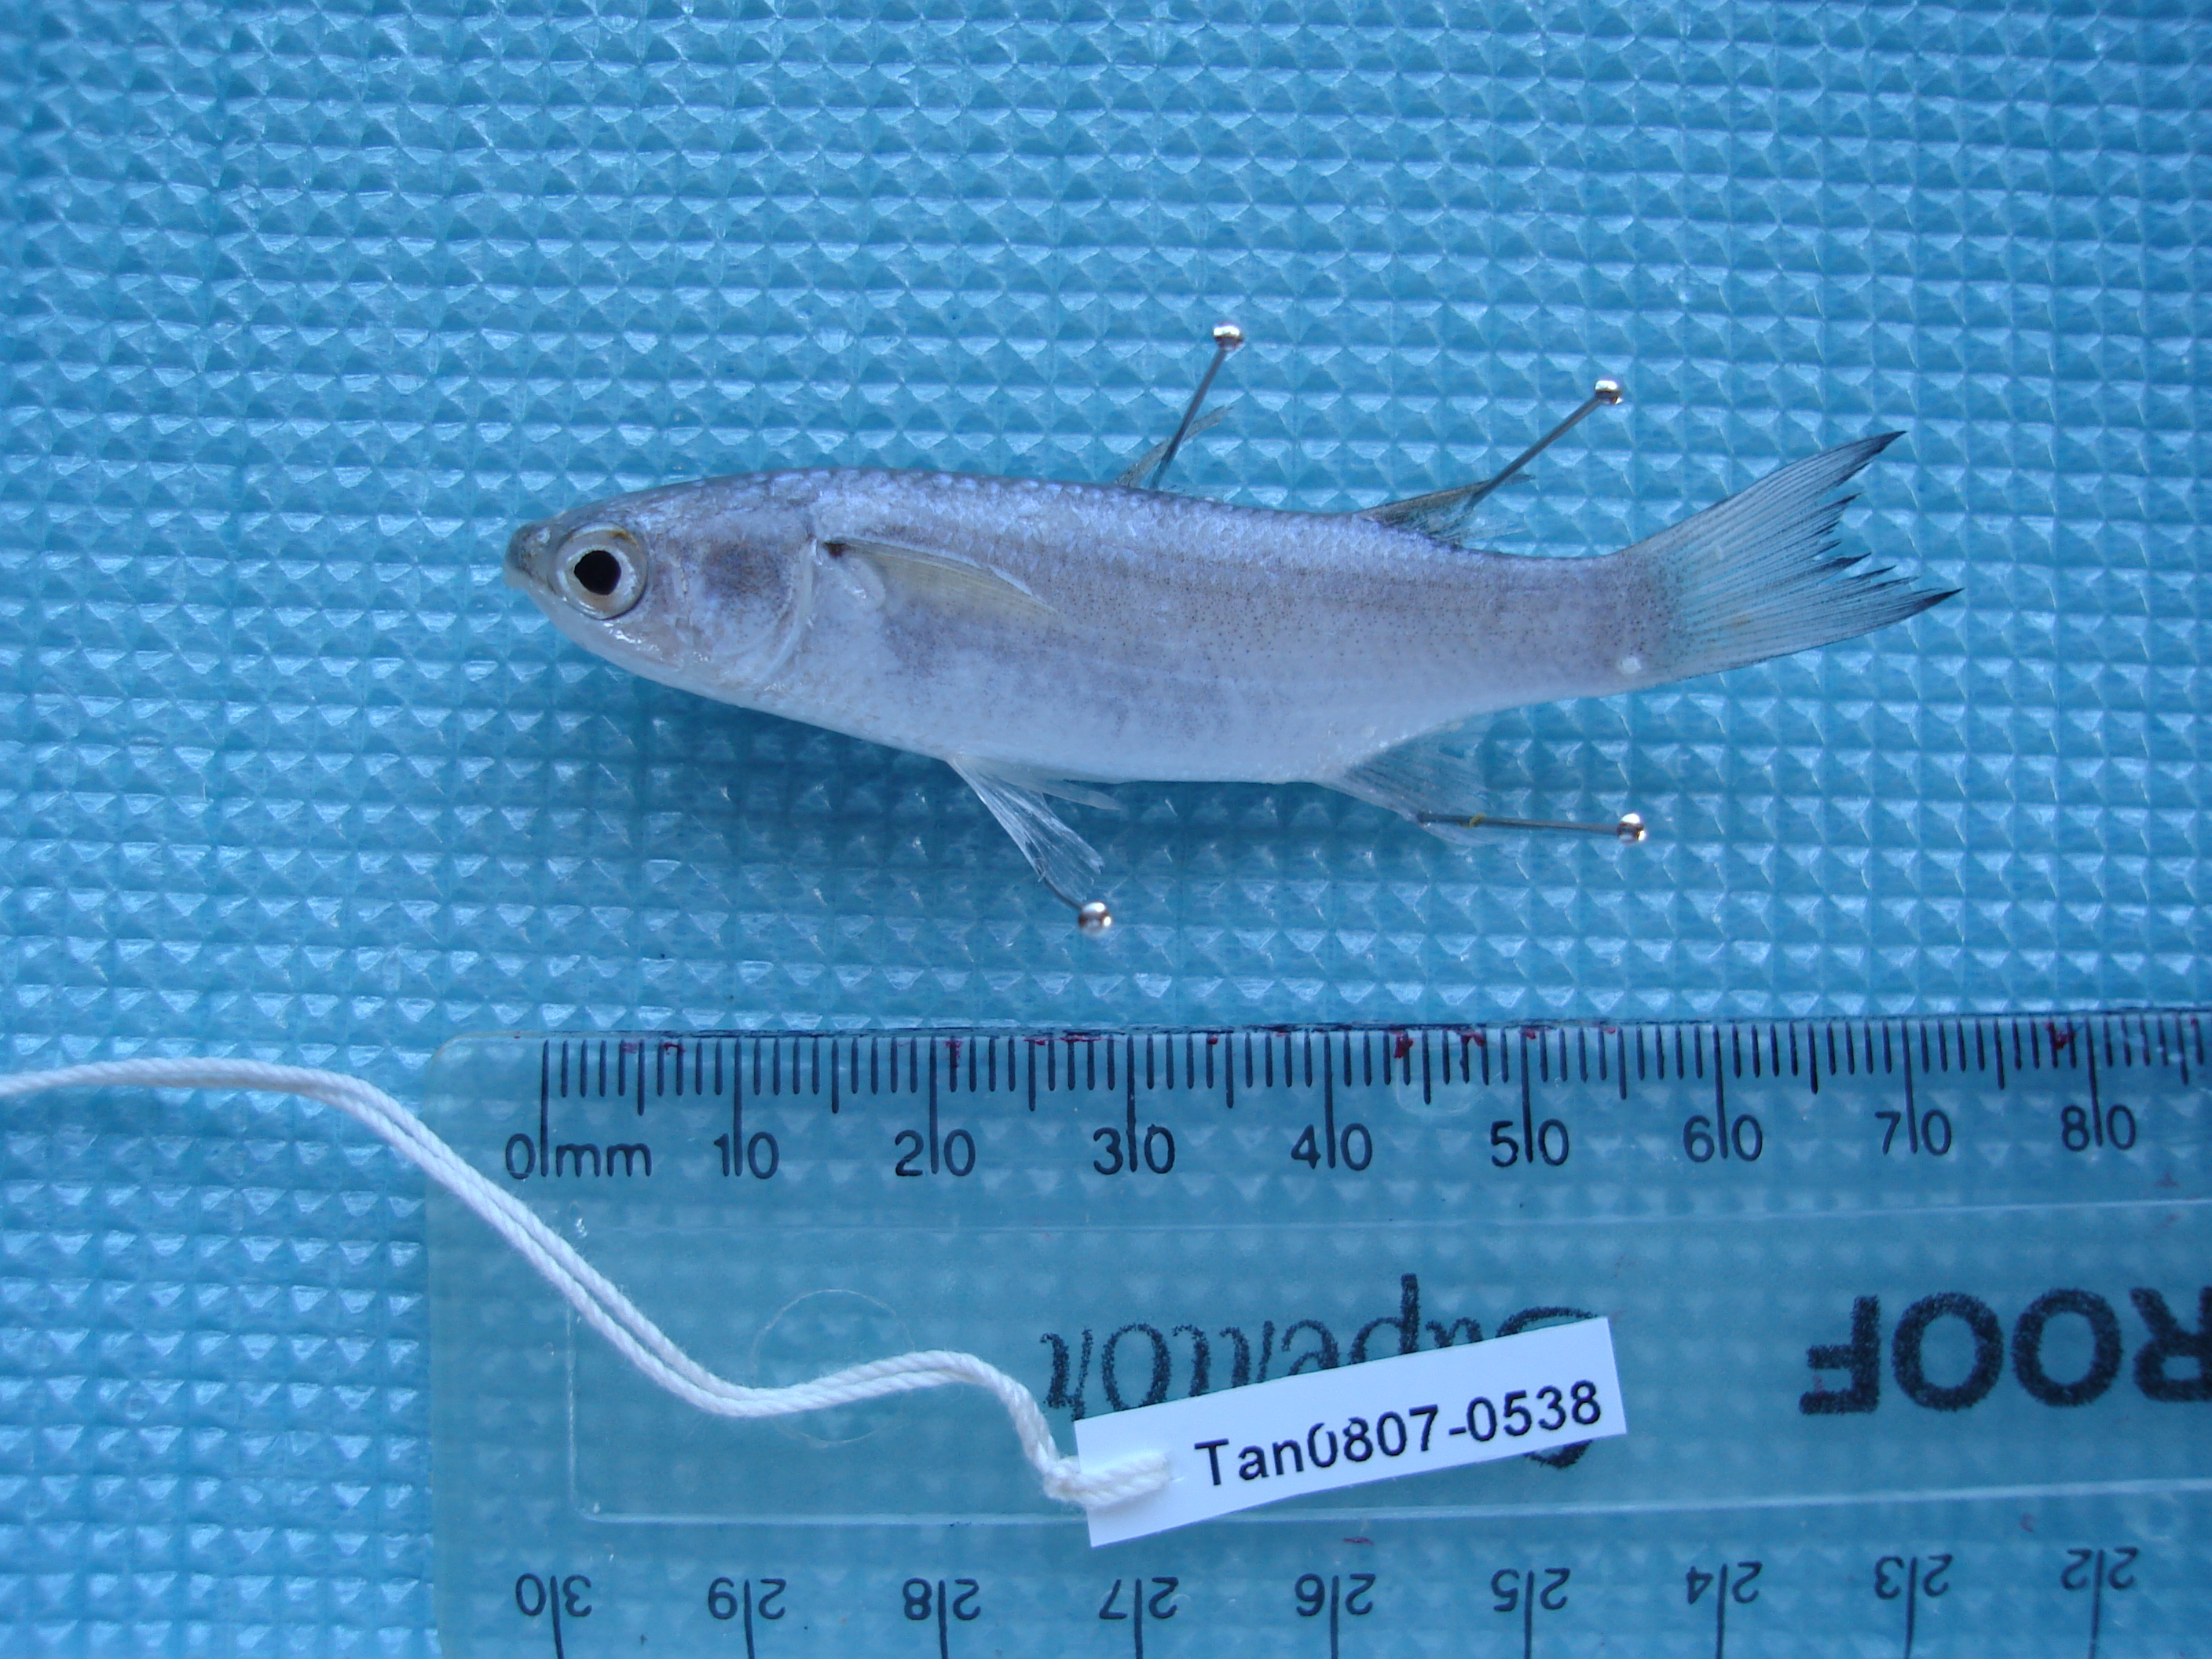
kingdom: Animalia
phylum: Chordata
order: Mugiliformes
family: Mugilidae
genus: Crenimugil
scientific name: Crenimugil crenilabis
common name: Fringelip mullet
